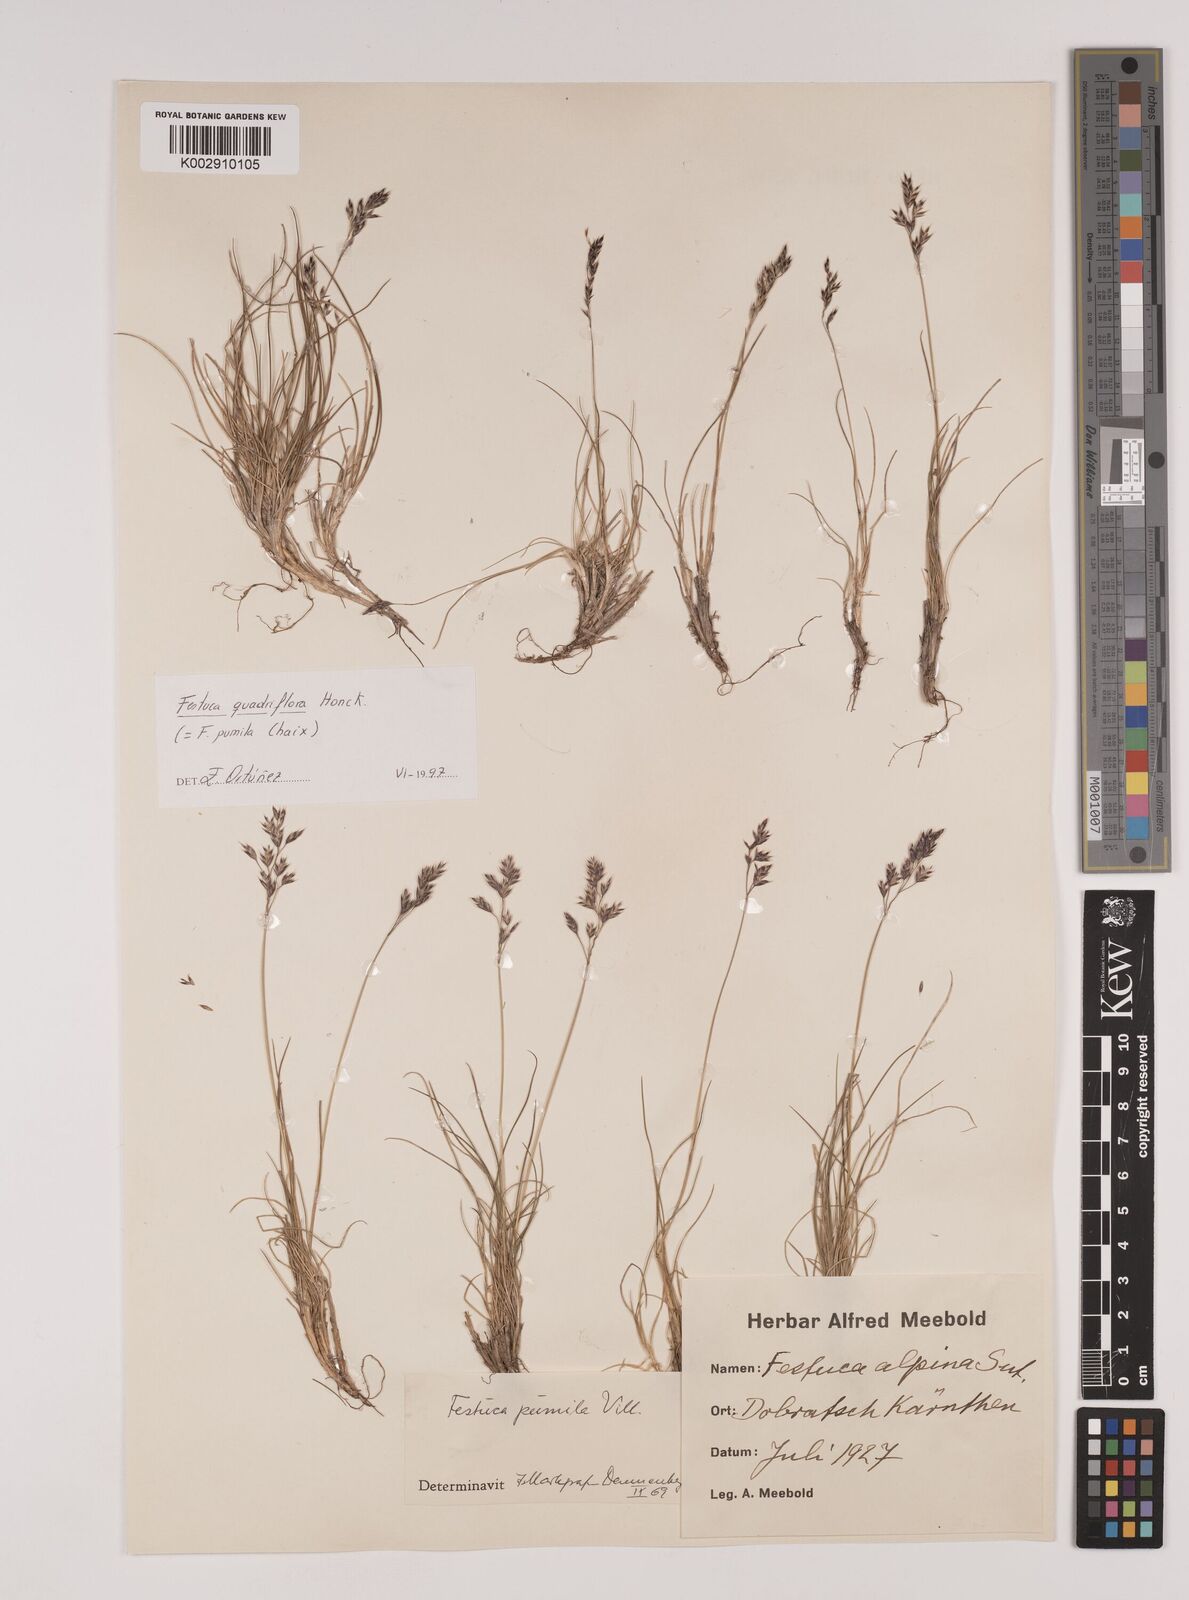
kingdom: Plantae
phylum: Tracheophyta
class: Liliopsida
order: Poales
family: Poaceae
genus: Festuca
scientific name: Festuca
